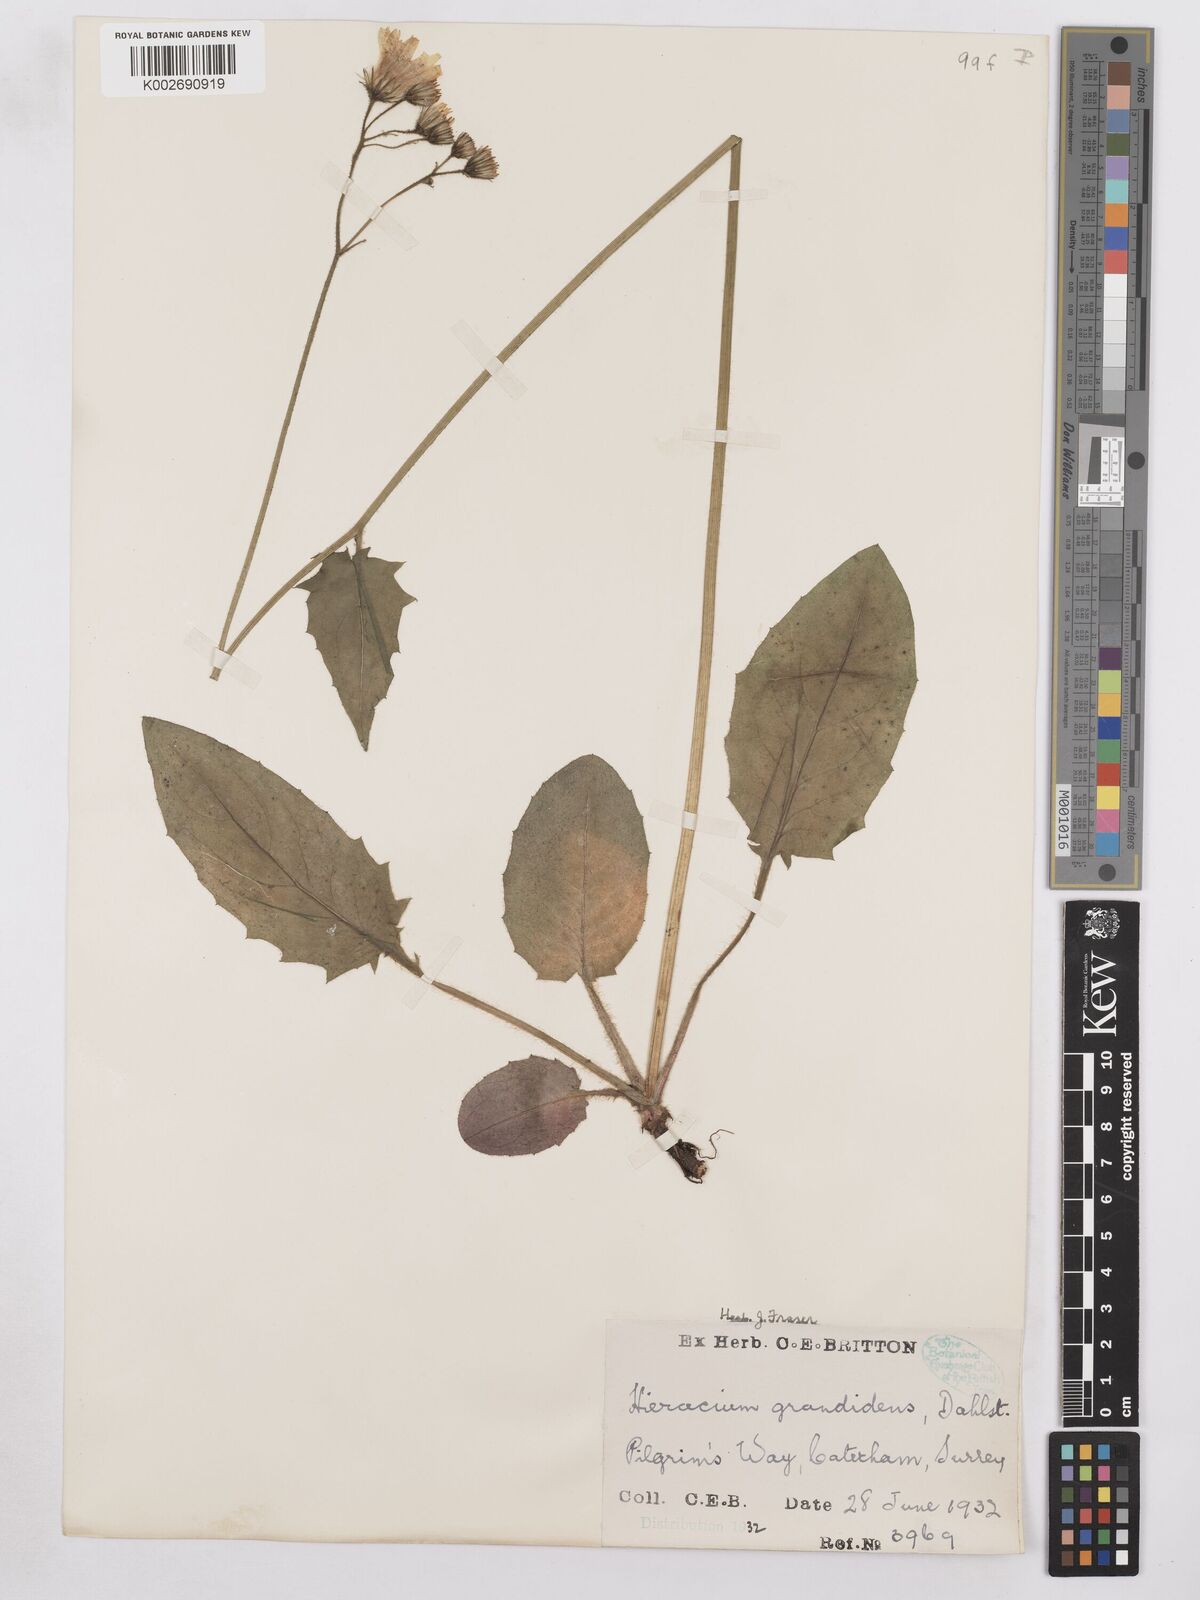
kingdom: Plantae
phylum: Tracheophyta
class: Magnoliopsida
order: Asterales
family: Asteraceae
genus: Hieracium
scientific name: Hieracium murorum
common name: Wall hawkweed
